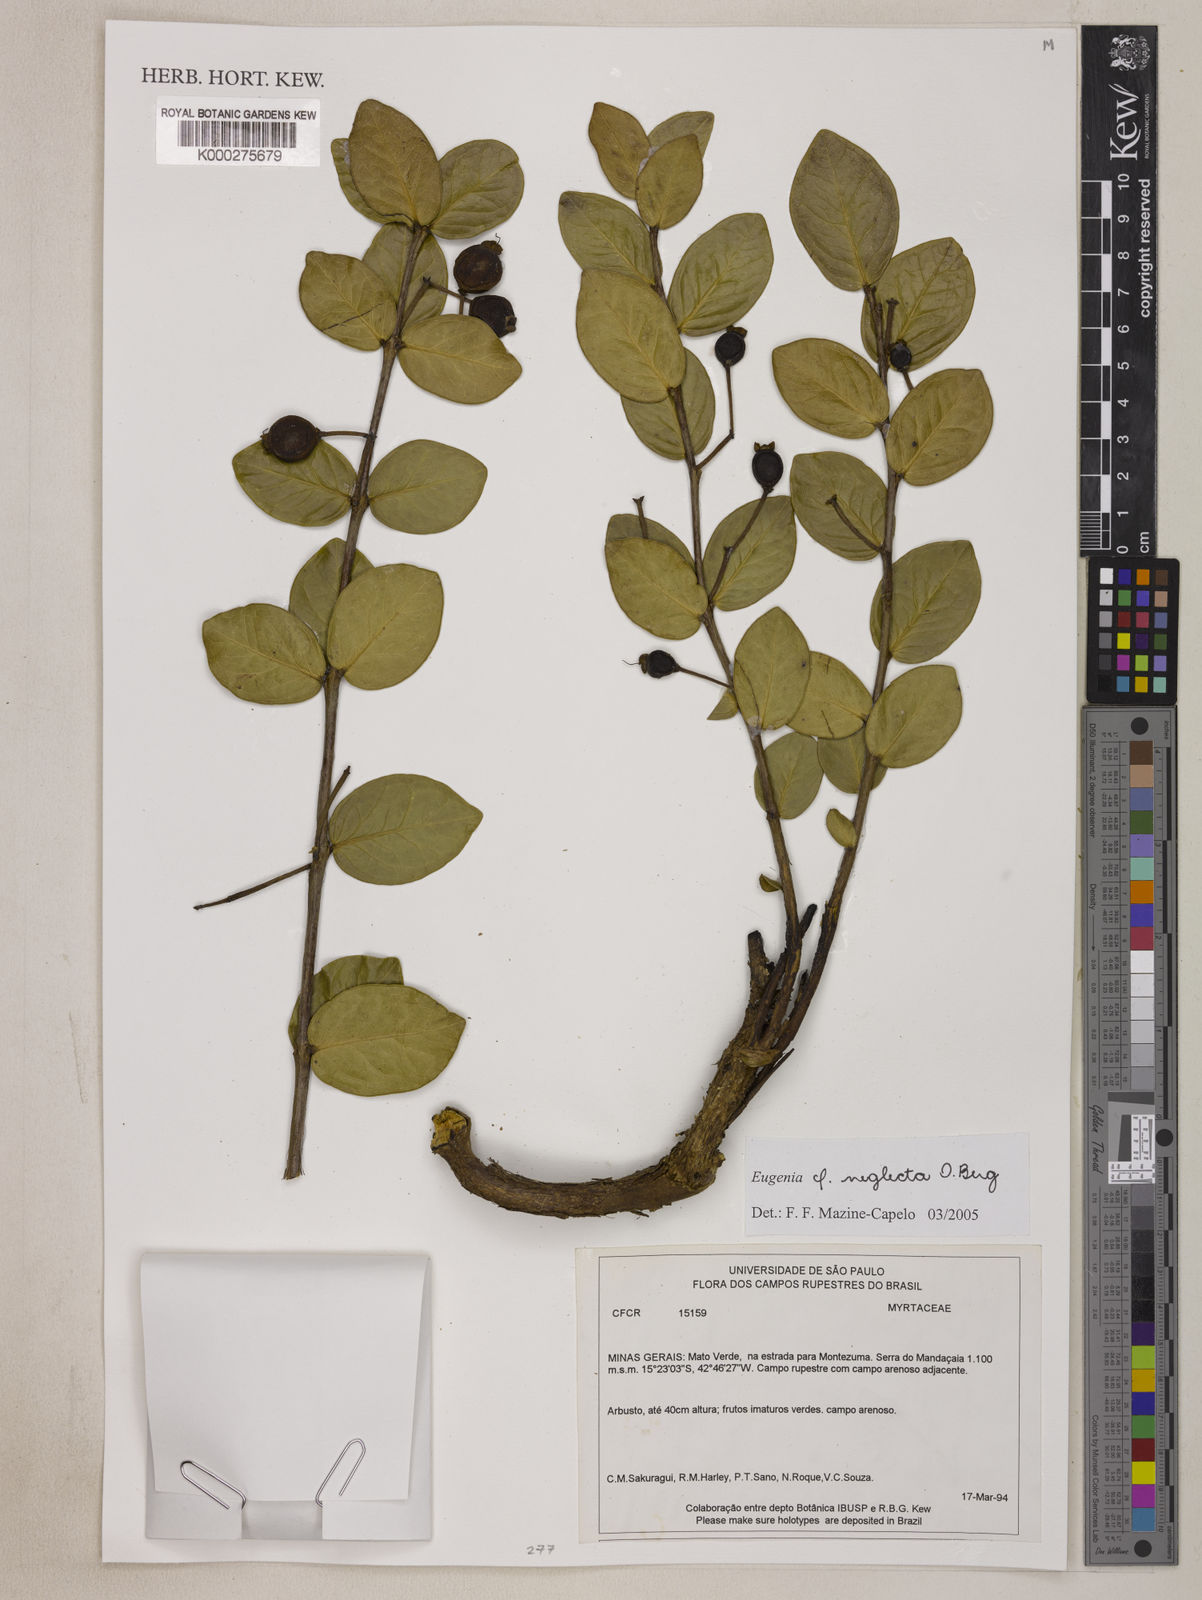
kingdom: Plantae
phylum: Tracheophyta
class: Magnoliopsida
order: Myrtales
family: Myrtaceae
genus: Eugenia
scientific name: Eugenia capparidifolia
